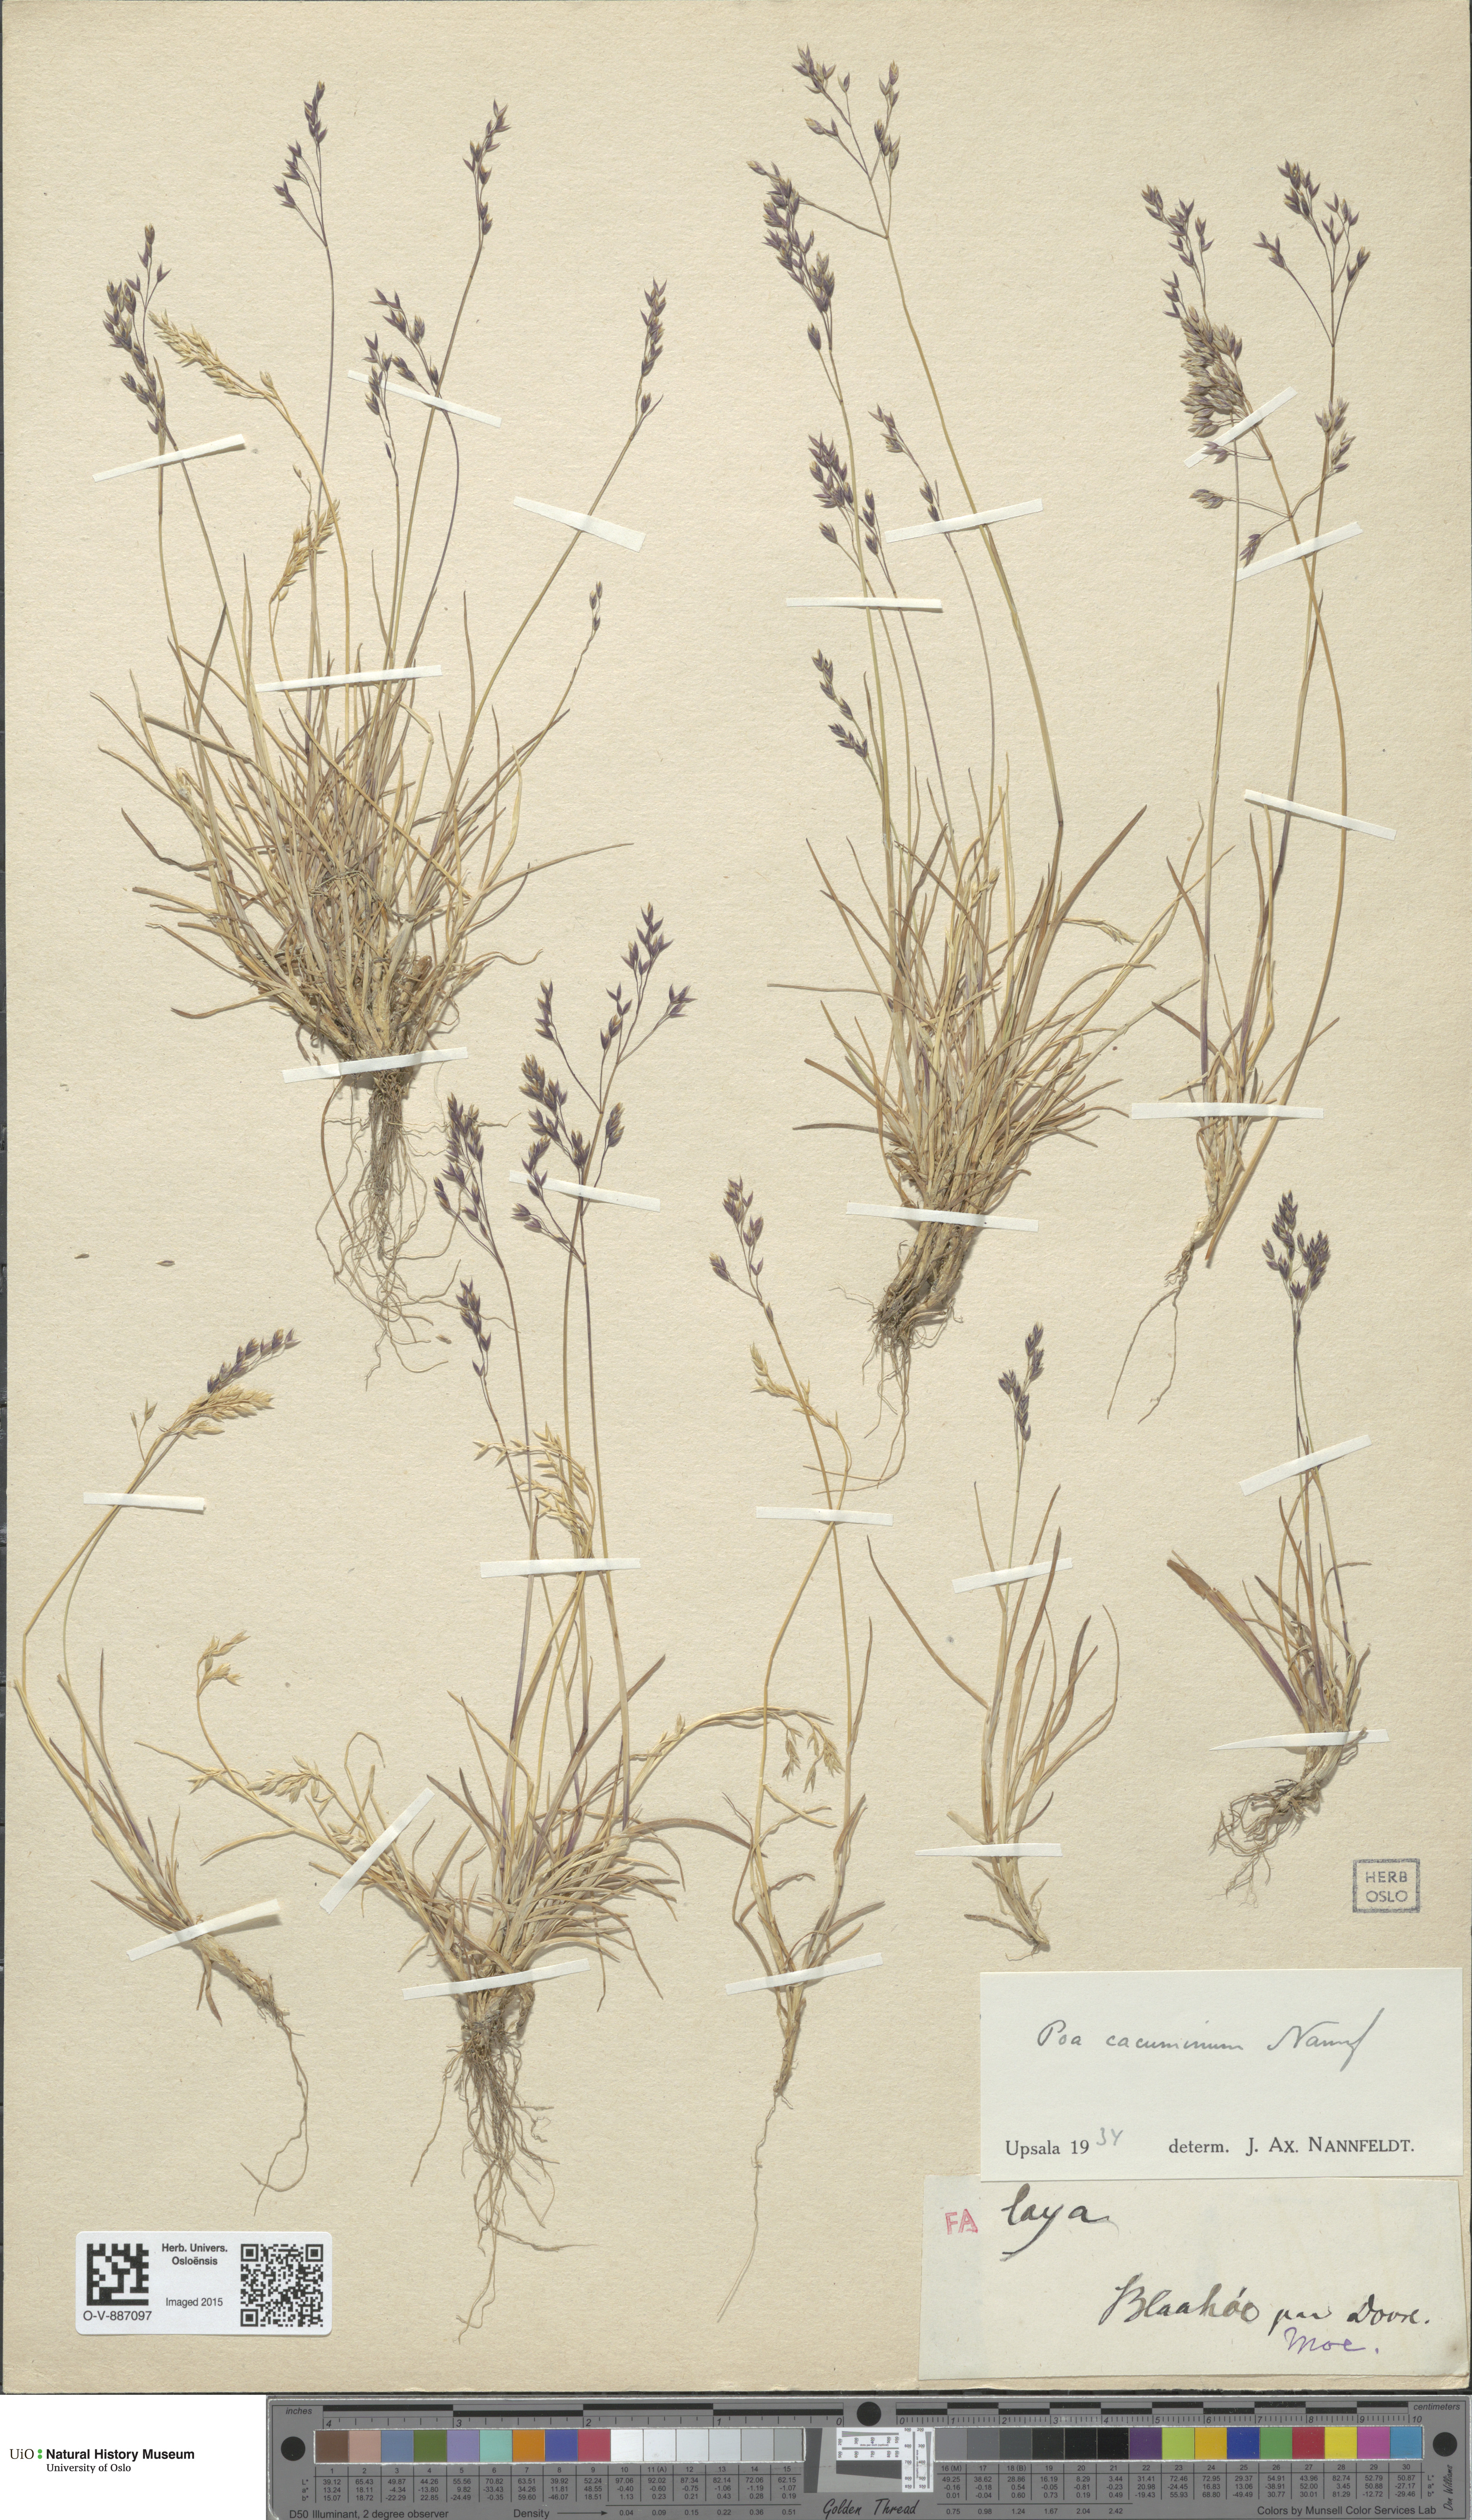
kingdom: Plantae
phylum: Tracheophyta
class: Liliopsida
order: Poales
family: Poaceae
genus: Poa
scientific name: Poa flexuosa
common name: Wavy meadow-grass
